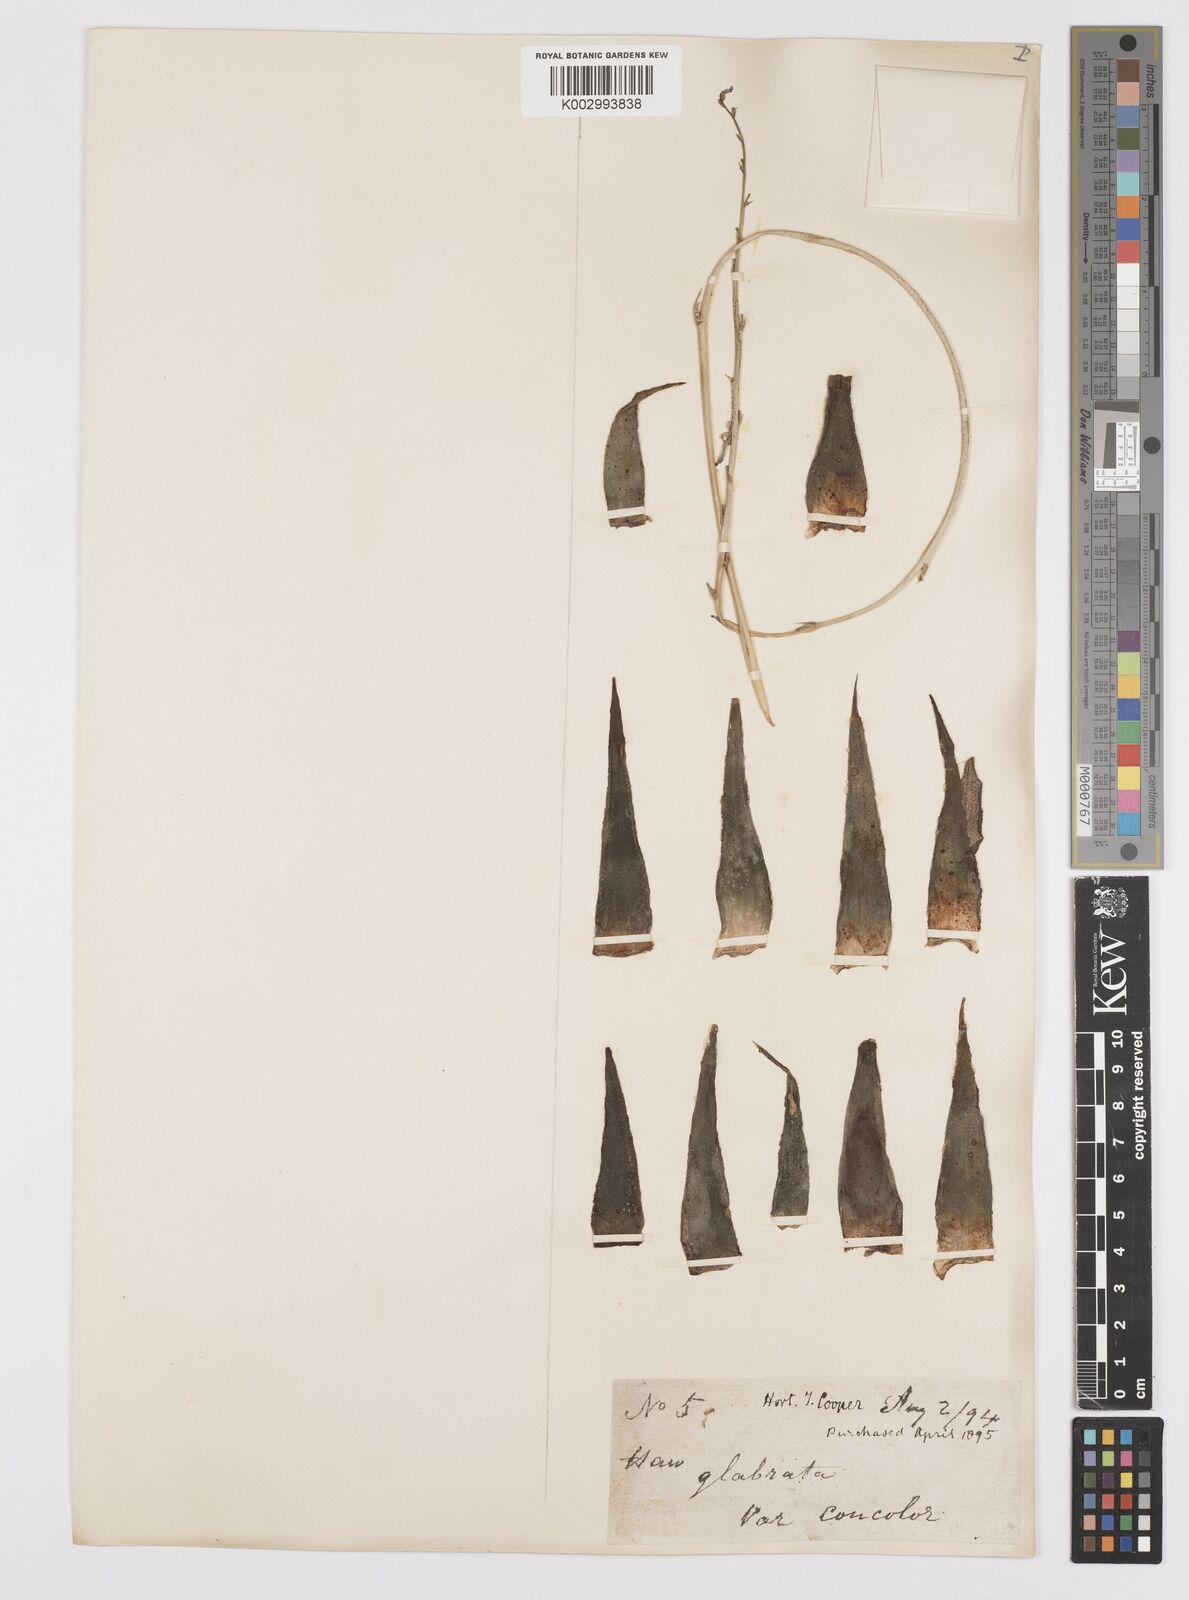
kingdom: Plantae
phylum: Tracheophyta
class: Liliopsida
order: Asparagales
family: Asphodelaceae
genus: Haworthiopsis
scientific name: Haworthiopsis attenuata
